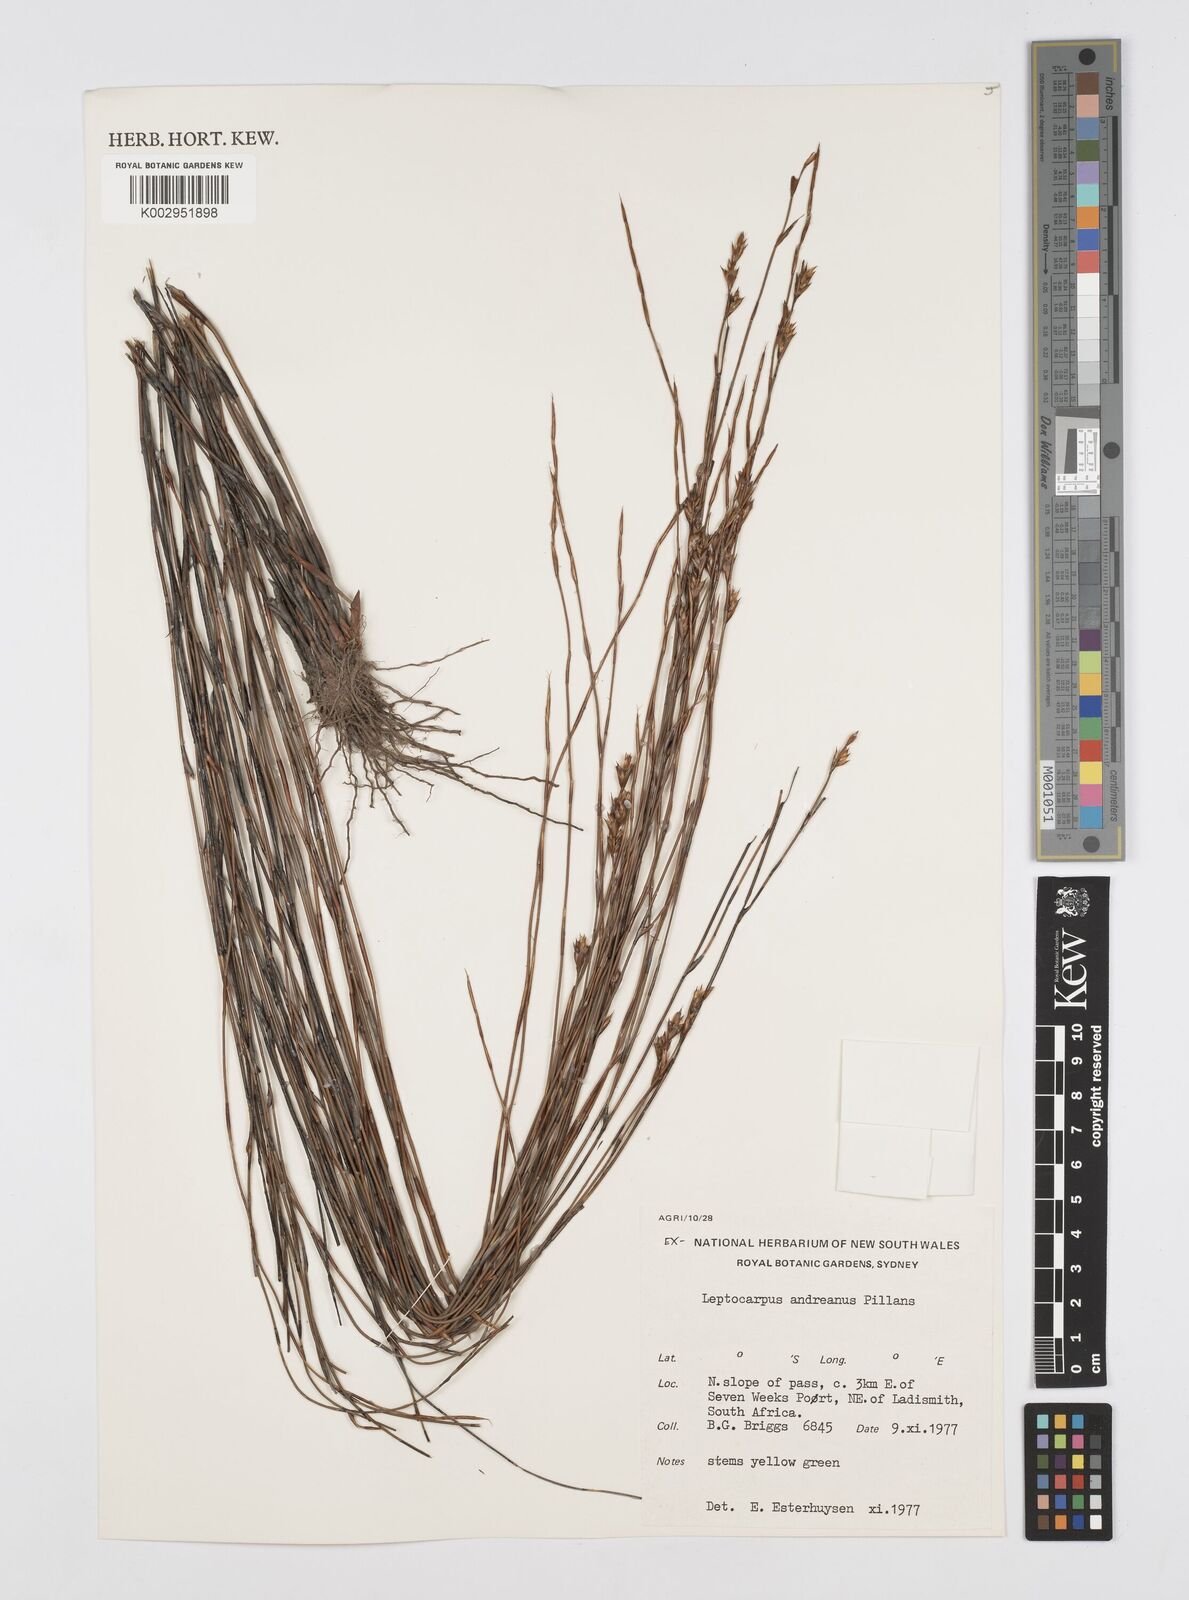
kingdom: Plantae
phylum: Tracheophyta
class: Liliopsida
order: Poales
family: Restionaceae
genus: Restio
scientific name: Restio andreaeanus
